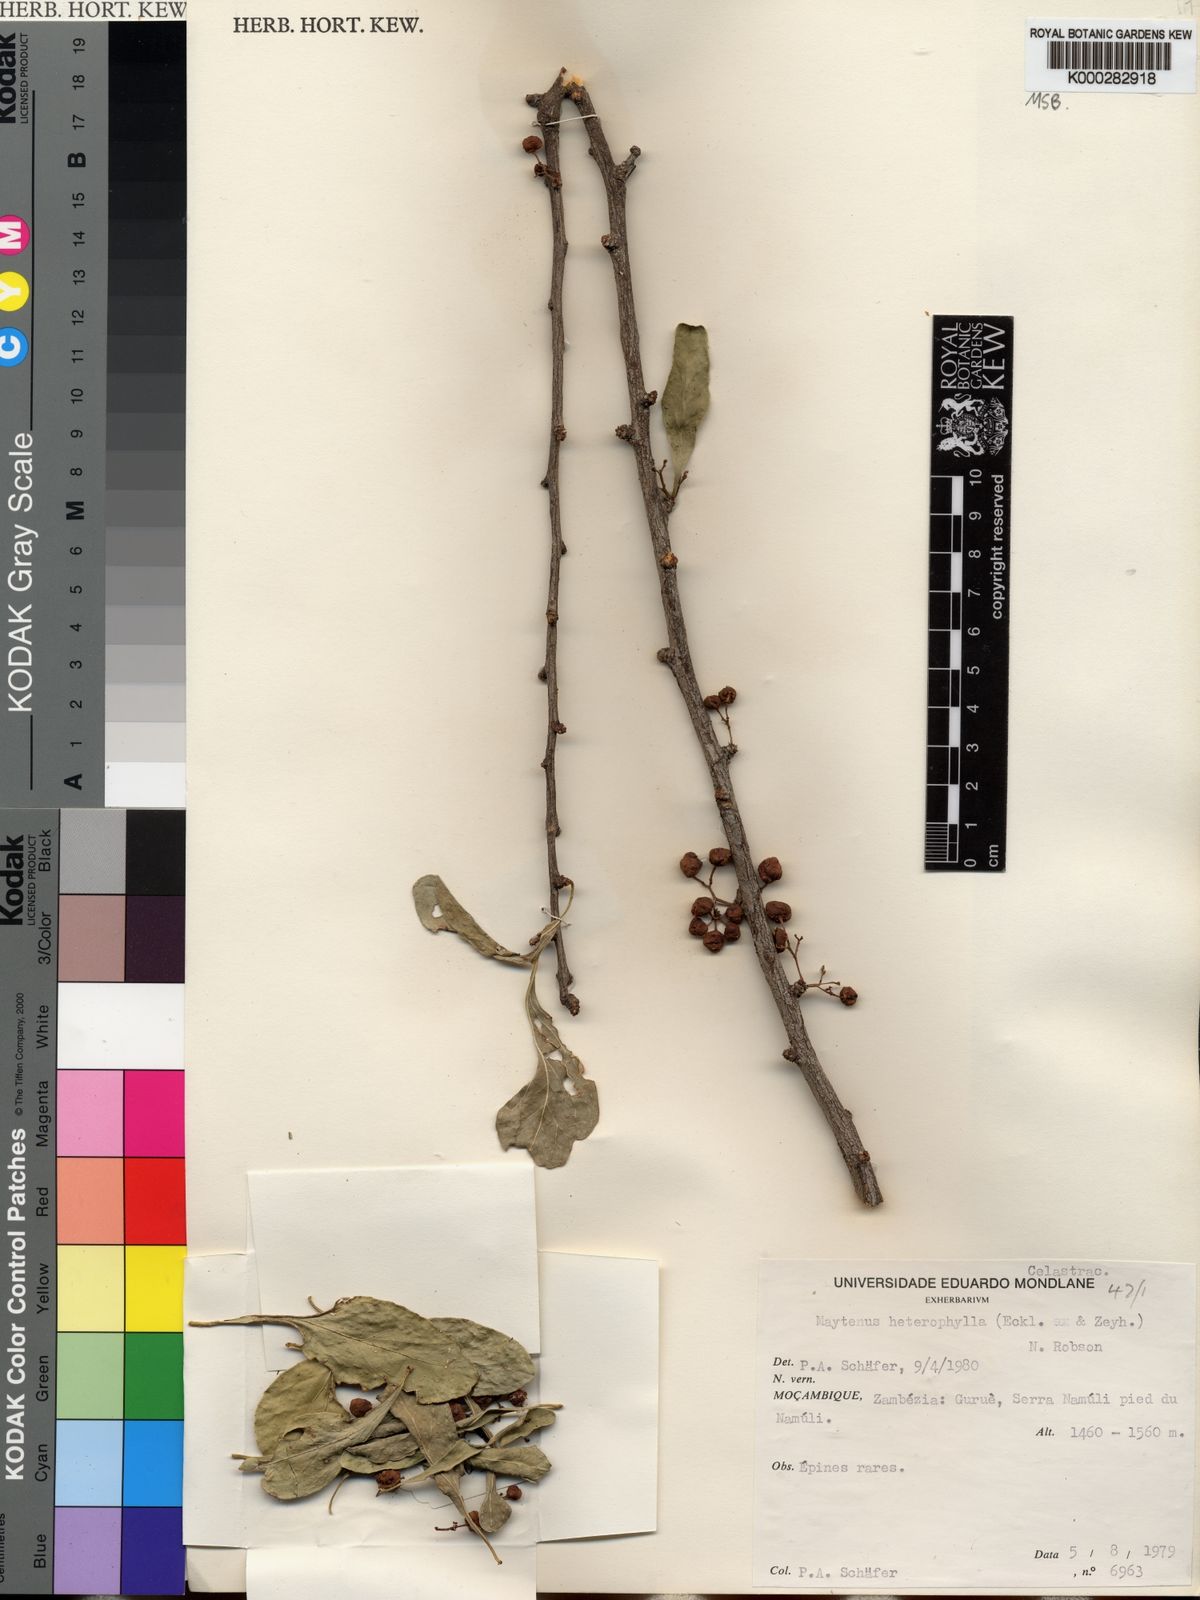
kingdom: Plantae
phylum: Tracheophyta
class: Magnoliopsida
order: Celastrales
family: Celastraceae
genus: Gymnosporia
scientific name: Gymnosporia heterophylla
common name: Angle-stem spikethorn
